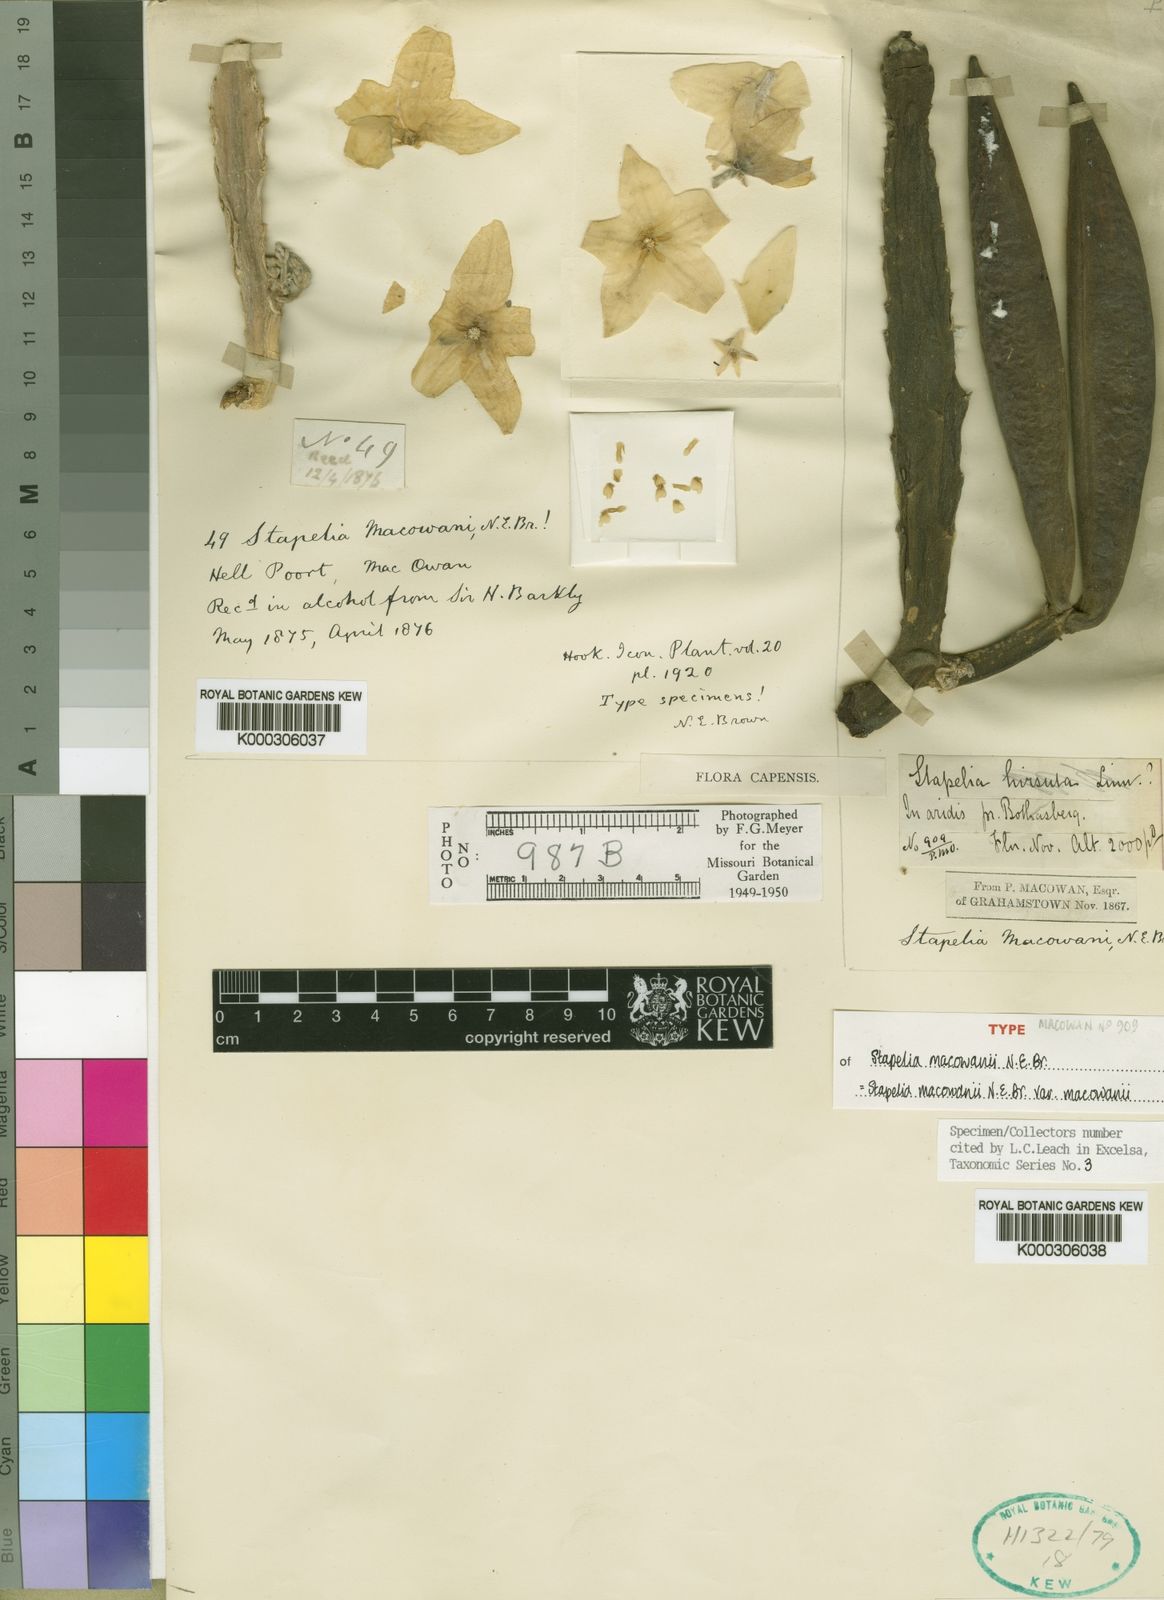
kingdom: Plantae
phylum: Tracheophyta
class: Magnoliopsida
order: Gentianales
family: Apocynaceae
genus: Ceropegia
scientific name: Ceropegia grandiflora
